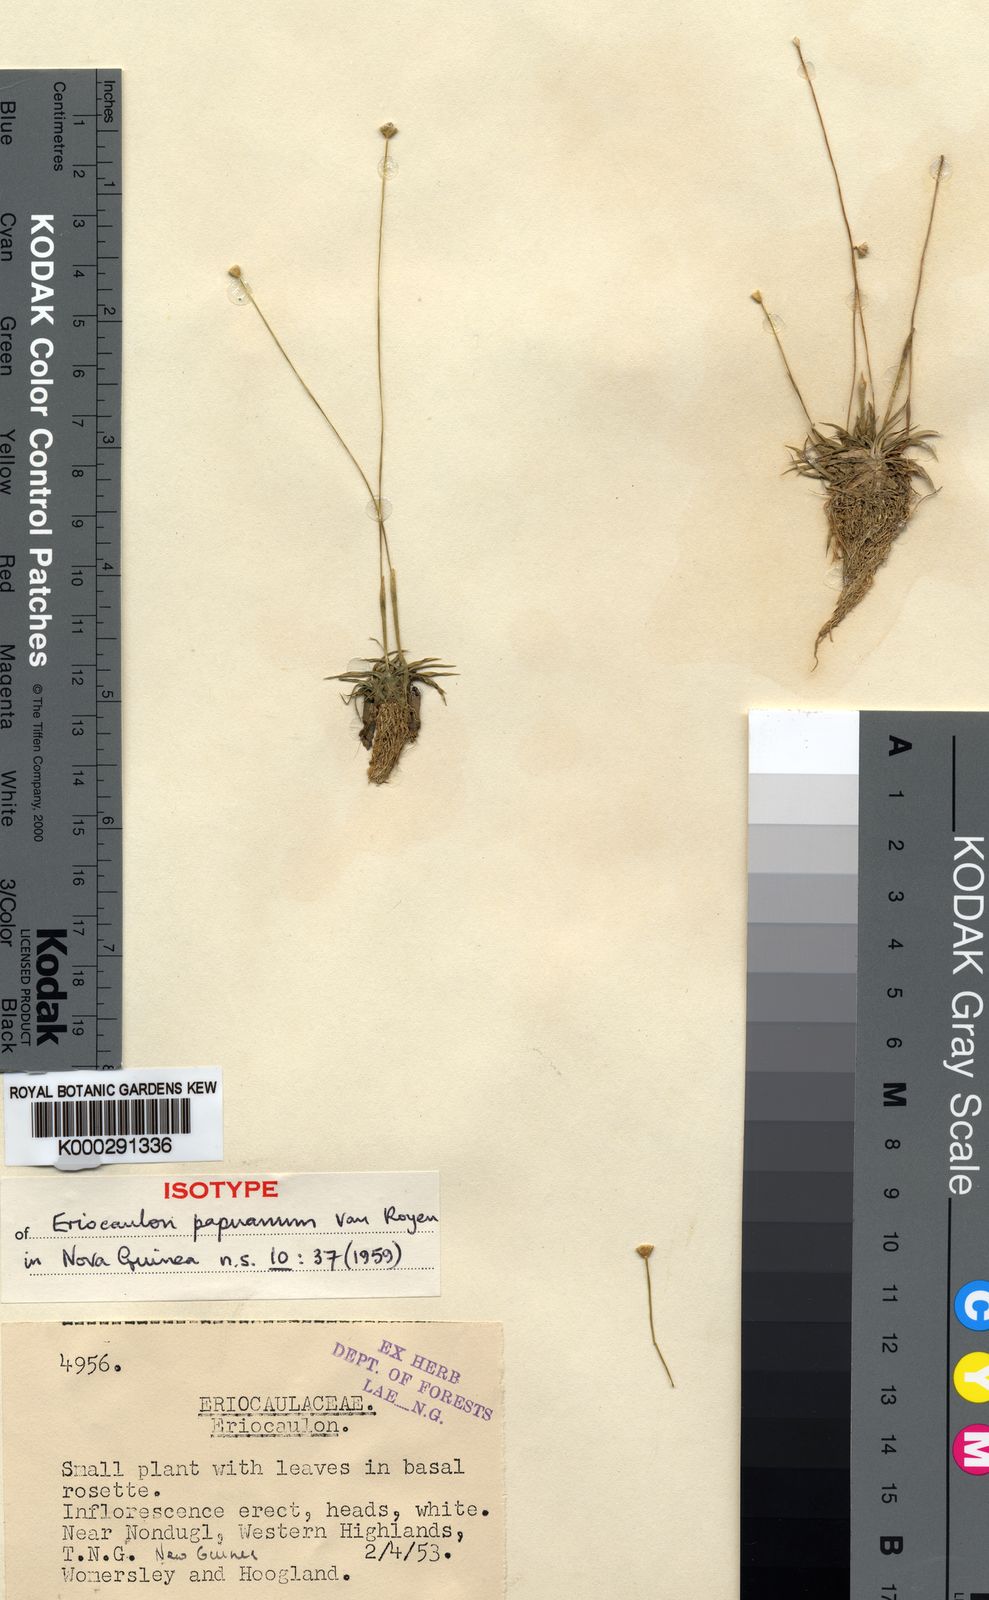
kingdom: Plantae
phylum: Tracheophyta
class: Liliopsida
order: Poales
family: Eriocaulaceae
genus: Eriocaulon
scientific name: Eriocaulon nepalense
